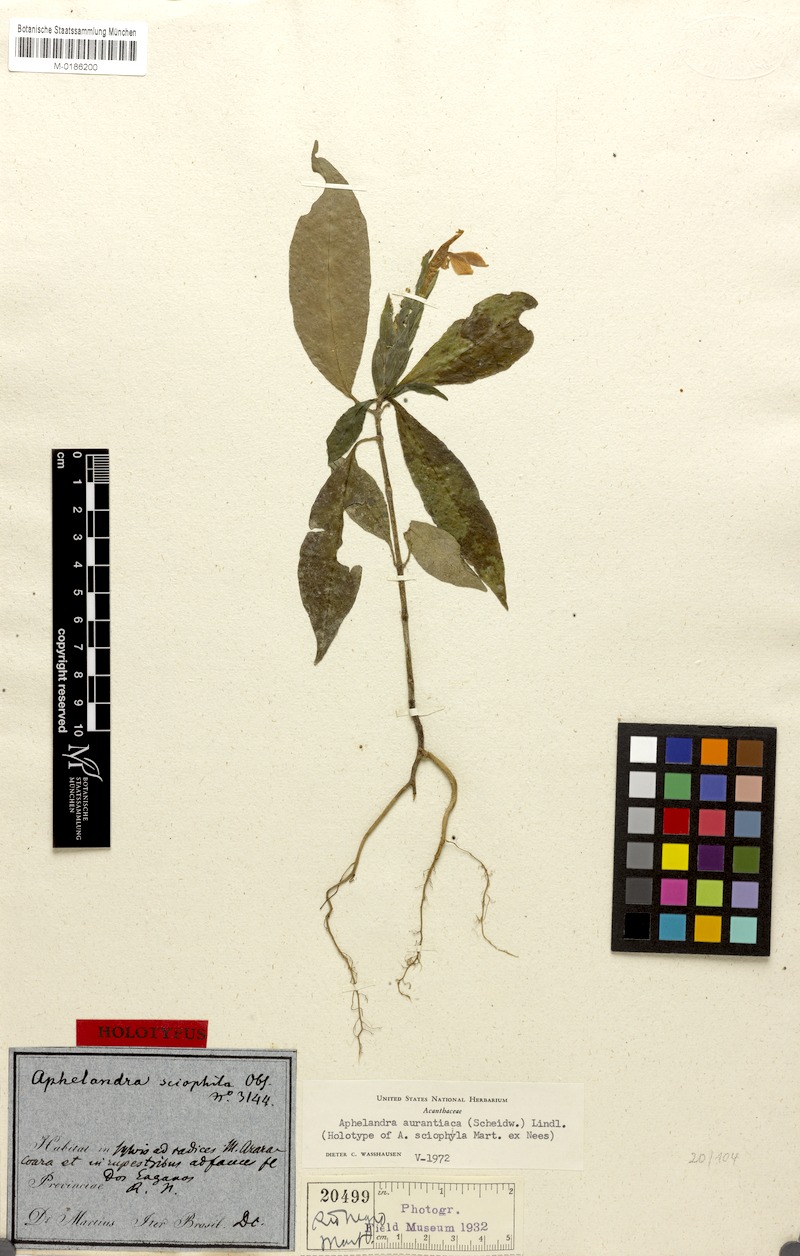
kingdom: Plantae
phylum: Tracheophyta
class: Magnoliopsida
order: Lamiales
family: Acanthaceae
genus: Aphelandra
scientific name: Aphelandra aurantiaca
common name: Fiery spike
